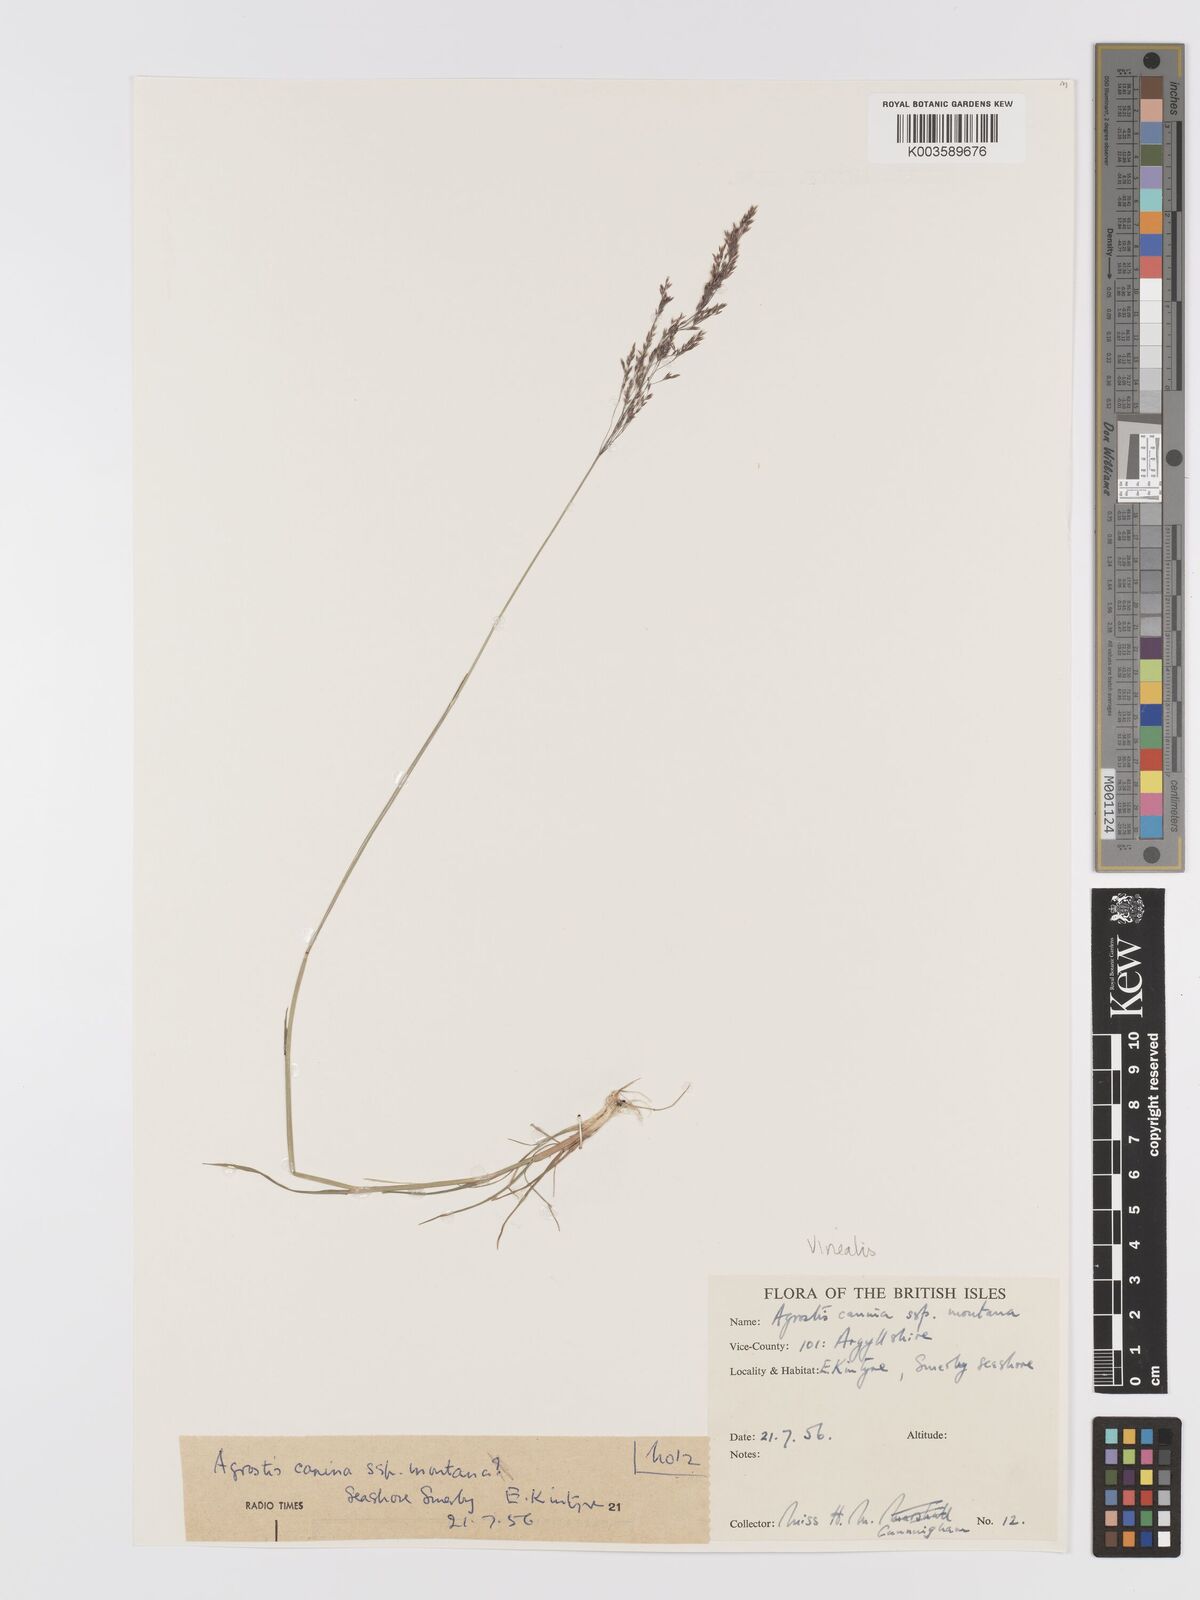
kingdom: Plantae
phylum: Tracheophyta
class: Liliopsida
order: Poales
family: Poaceae
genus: Agrostis
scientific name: Agrostis
